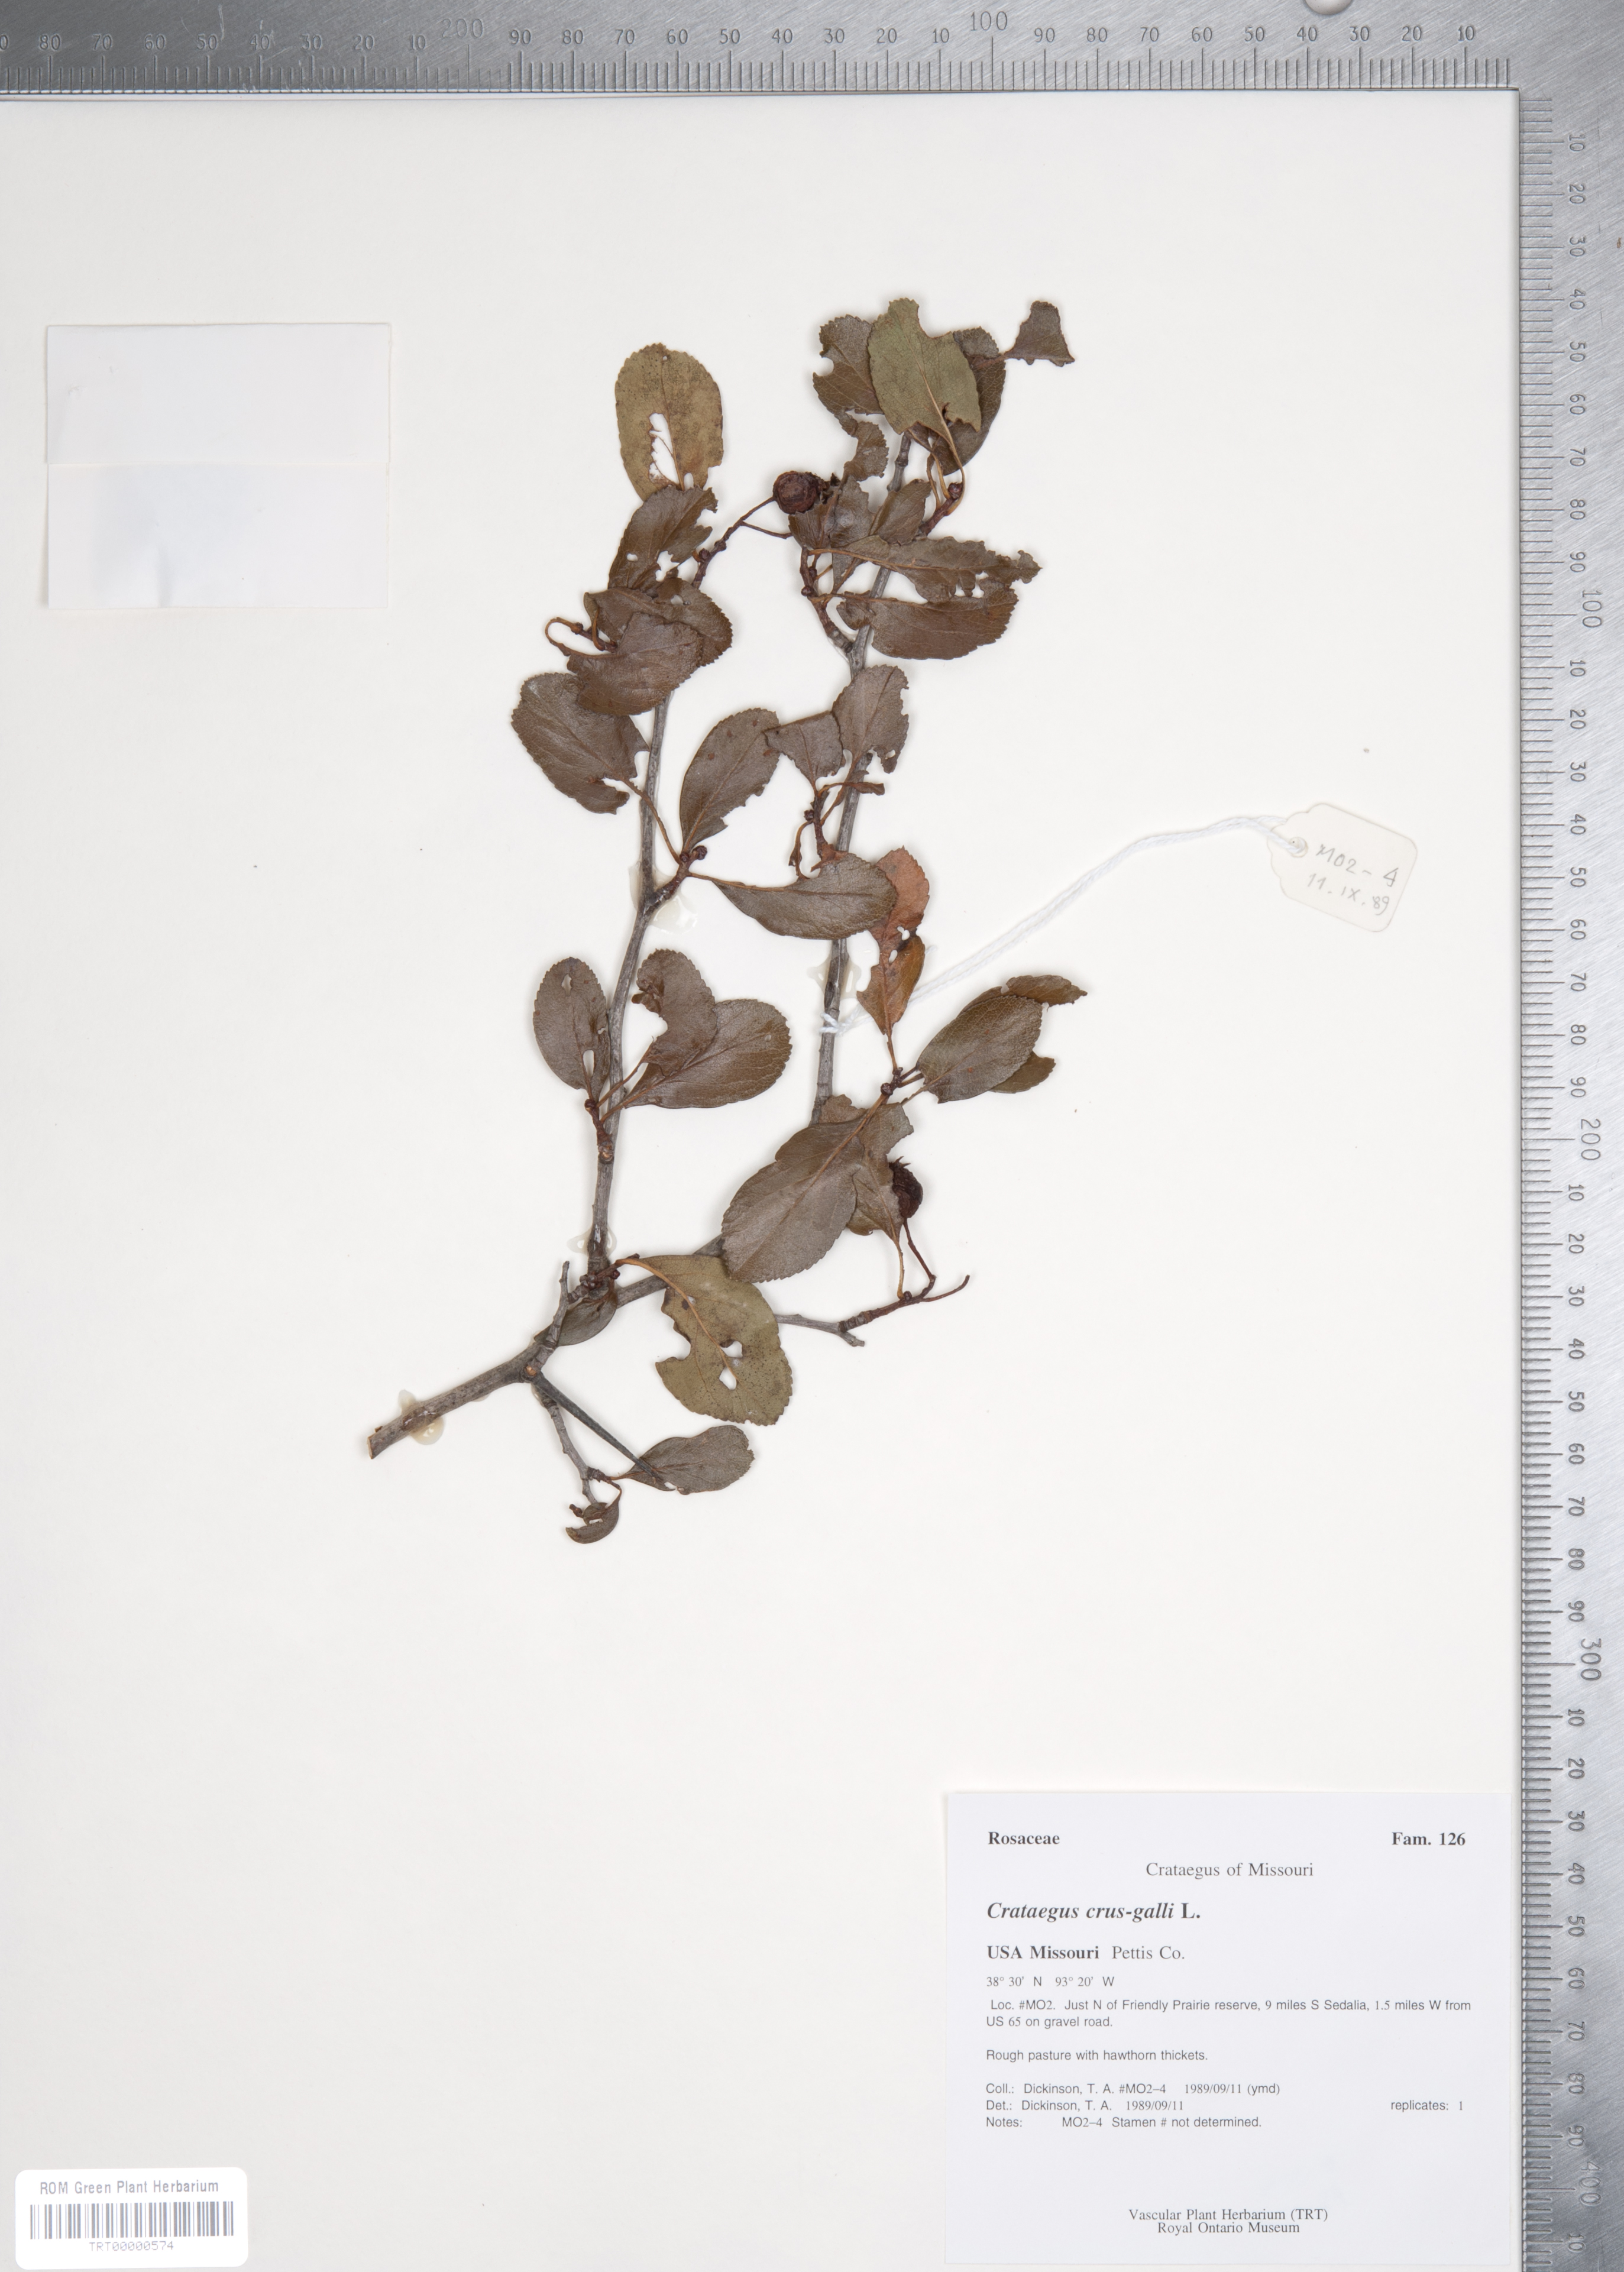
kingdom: Plantae
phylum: Tracheophyta
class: Magnoliopsida
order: Rosales
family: Rosaceae
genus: Crataegus
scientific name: Crataegus crus-galli
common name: Cockspurthorn
